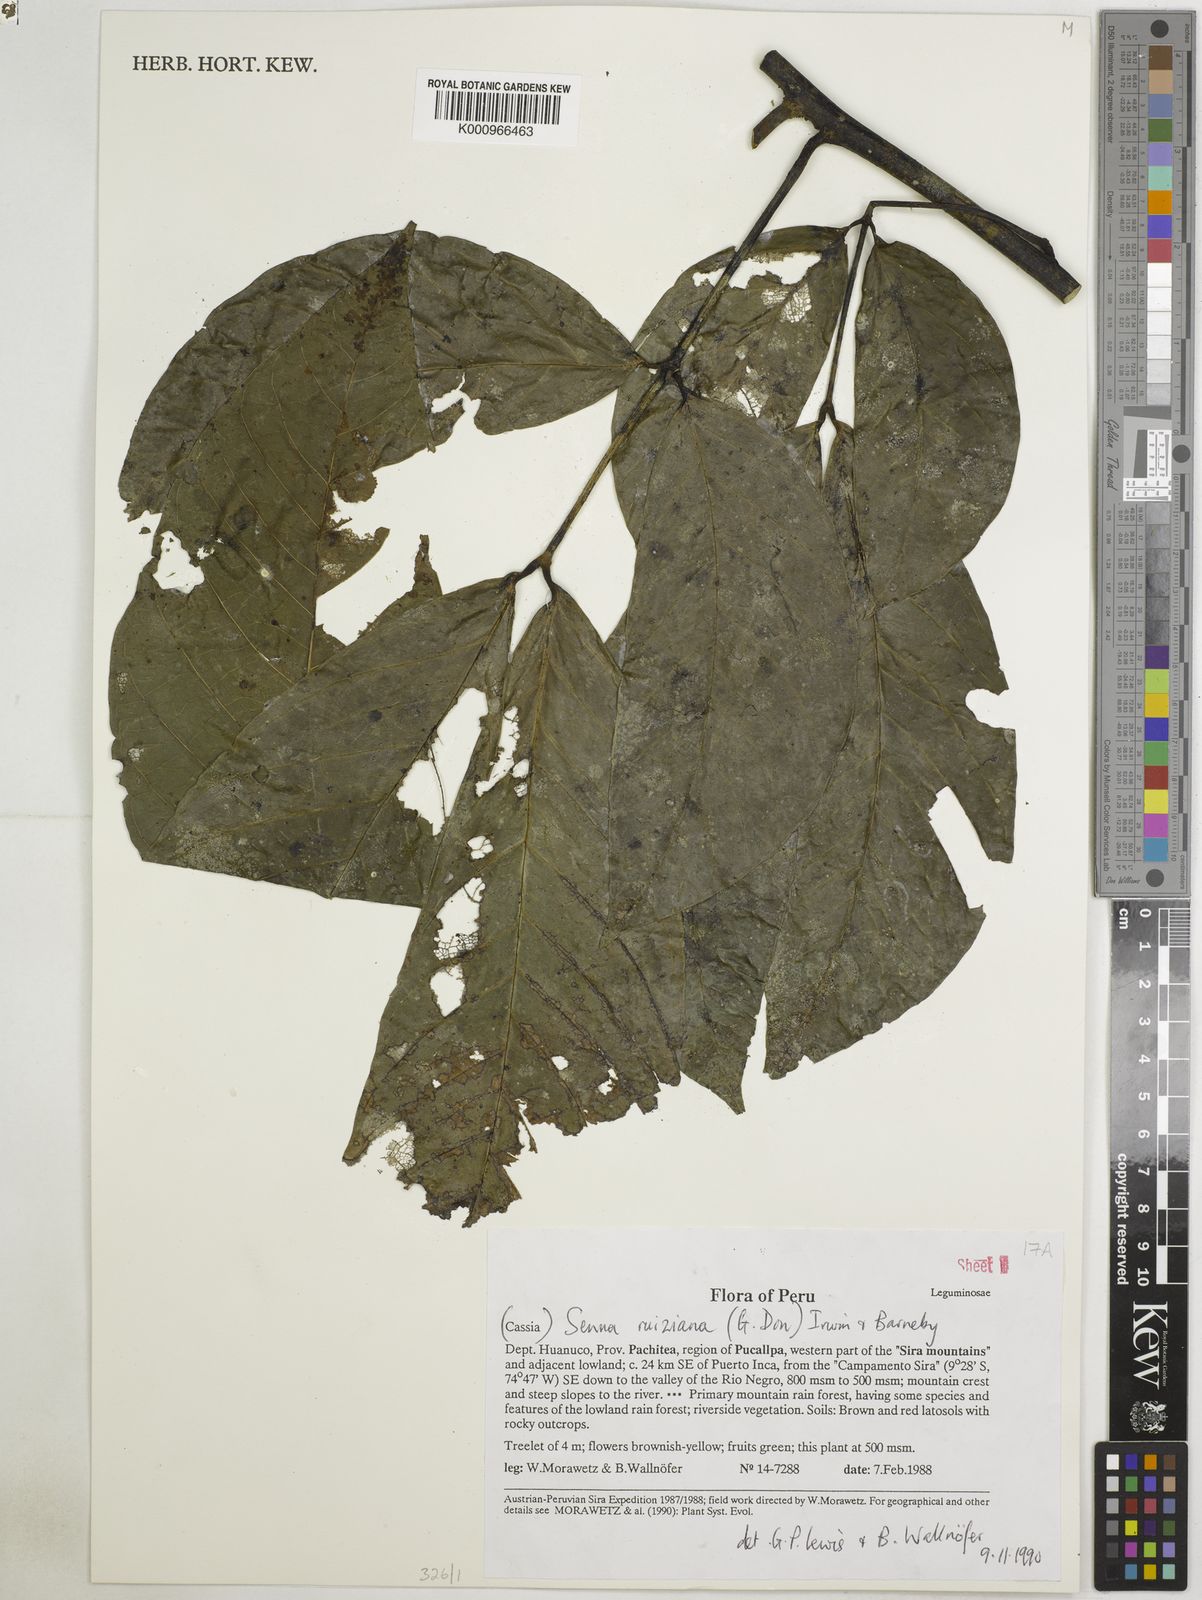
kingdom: Plantae
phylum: Tracheophyta
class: Magnoliopsida
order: Fabales
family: Fabaceae
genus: Senna
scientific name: Senna ruiziana
